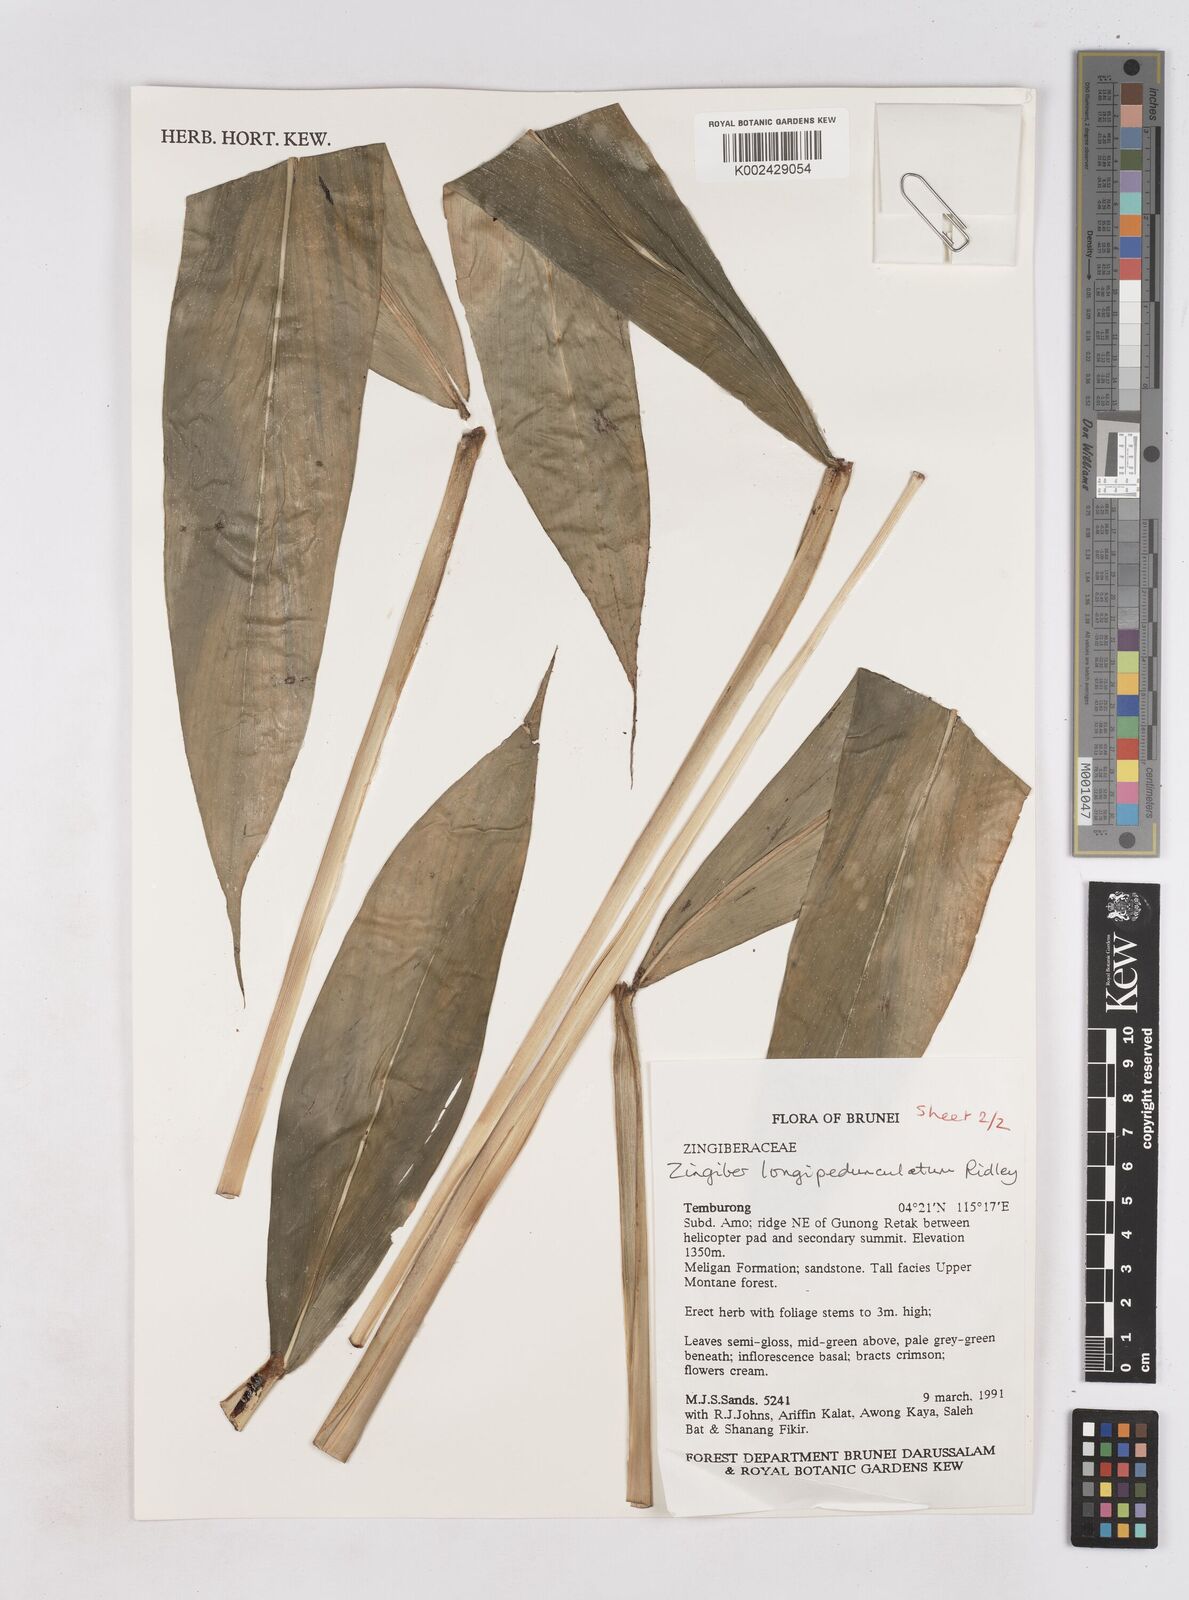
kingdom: Plantae
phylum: Tracheophyta
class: Liliopsida
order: Zingiberales
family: Zingiberaceae
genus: Zingiber
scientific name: Zingiber longipedunculatum
